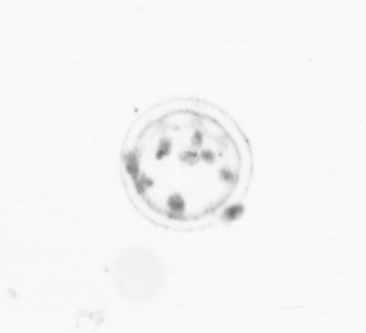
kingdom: Animalia
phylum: Cnidaria
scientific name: Cnidaria
